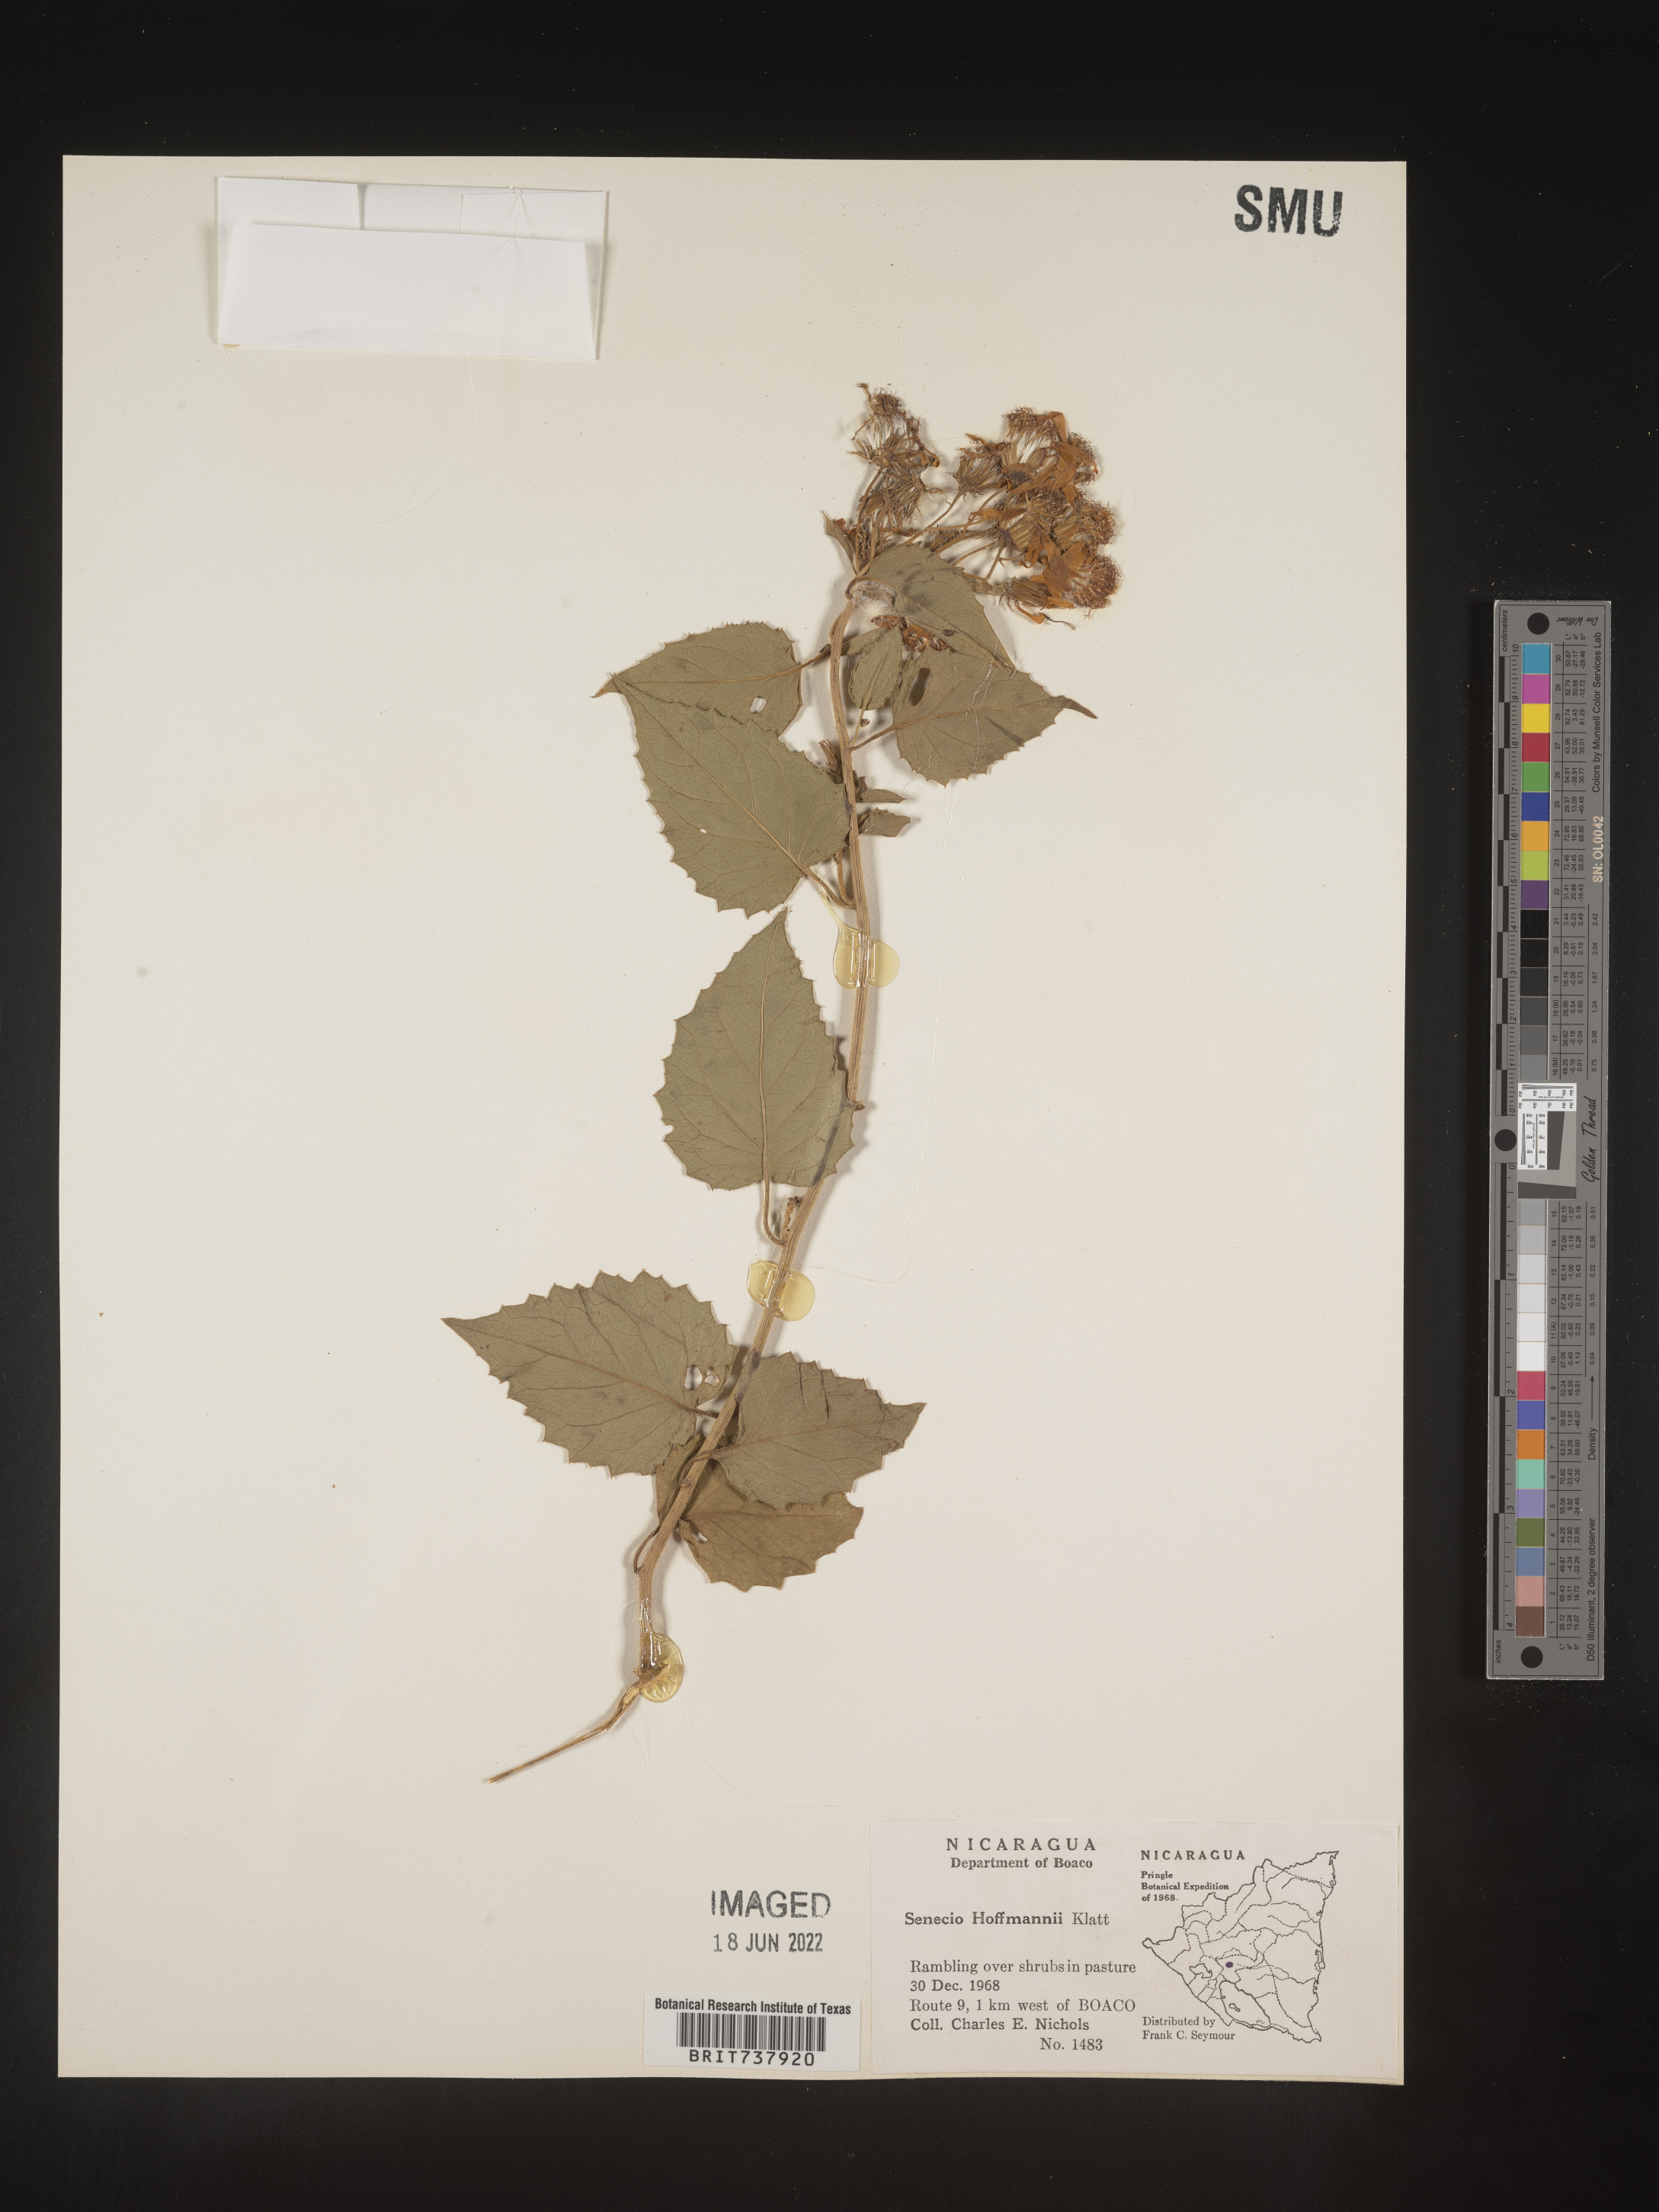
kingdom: Plantae
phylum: Tracheophyta
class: Magnoliopsida
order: Asterales
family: Asteraceae
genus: Pseudogynoxys
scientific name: Pseudogynoxys
